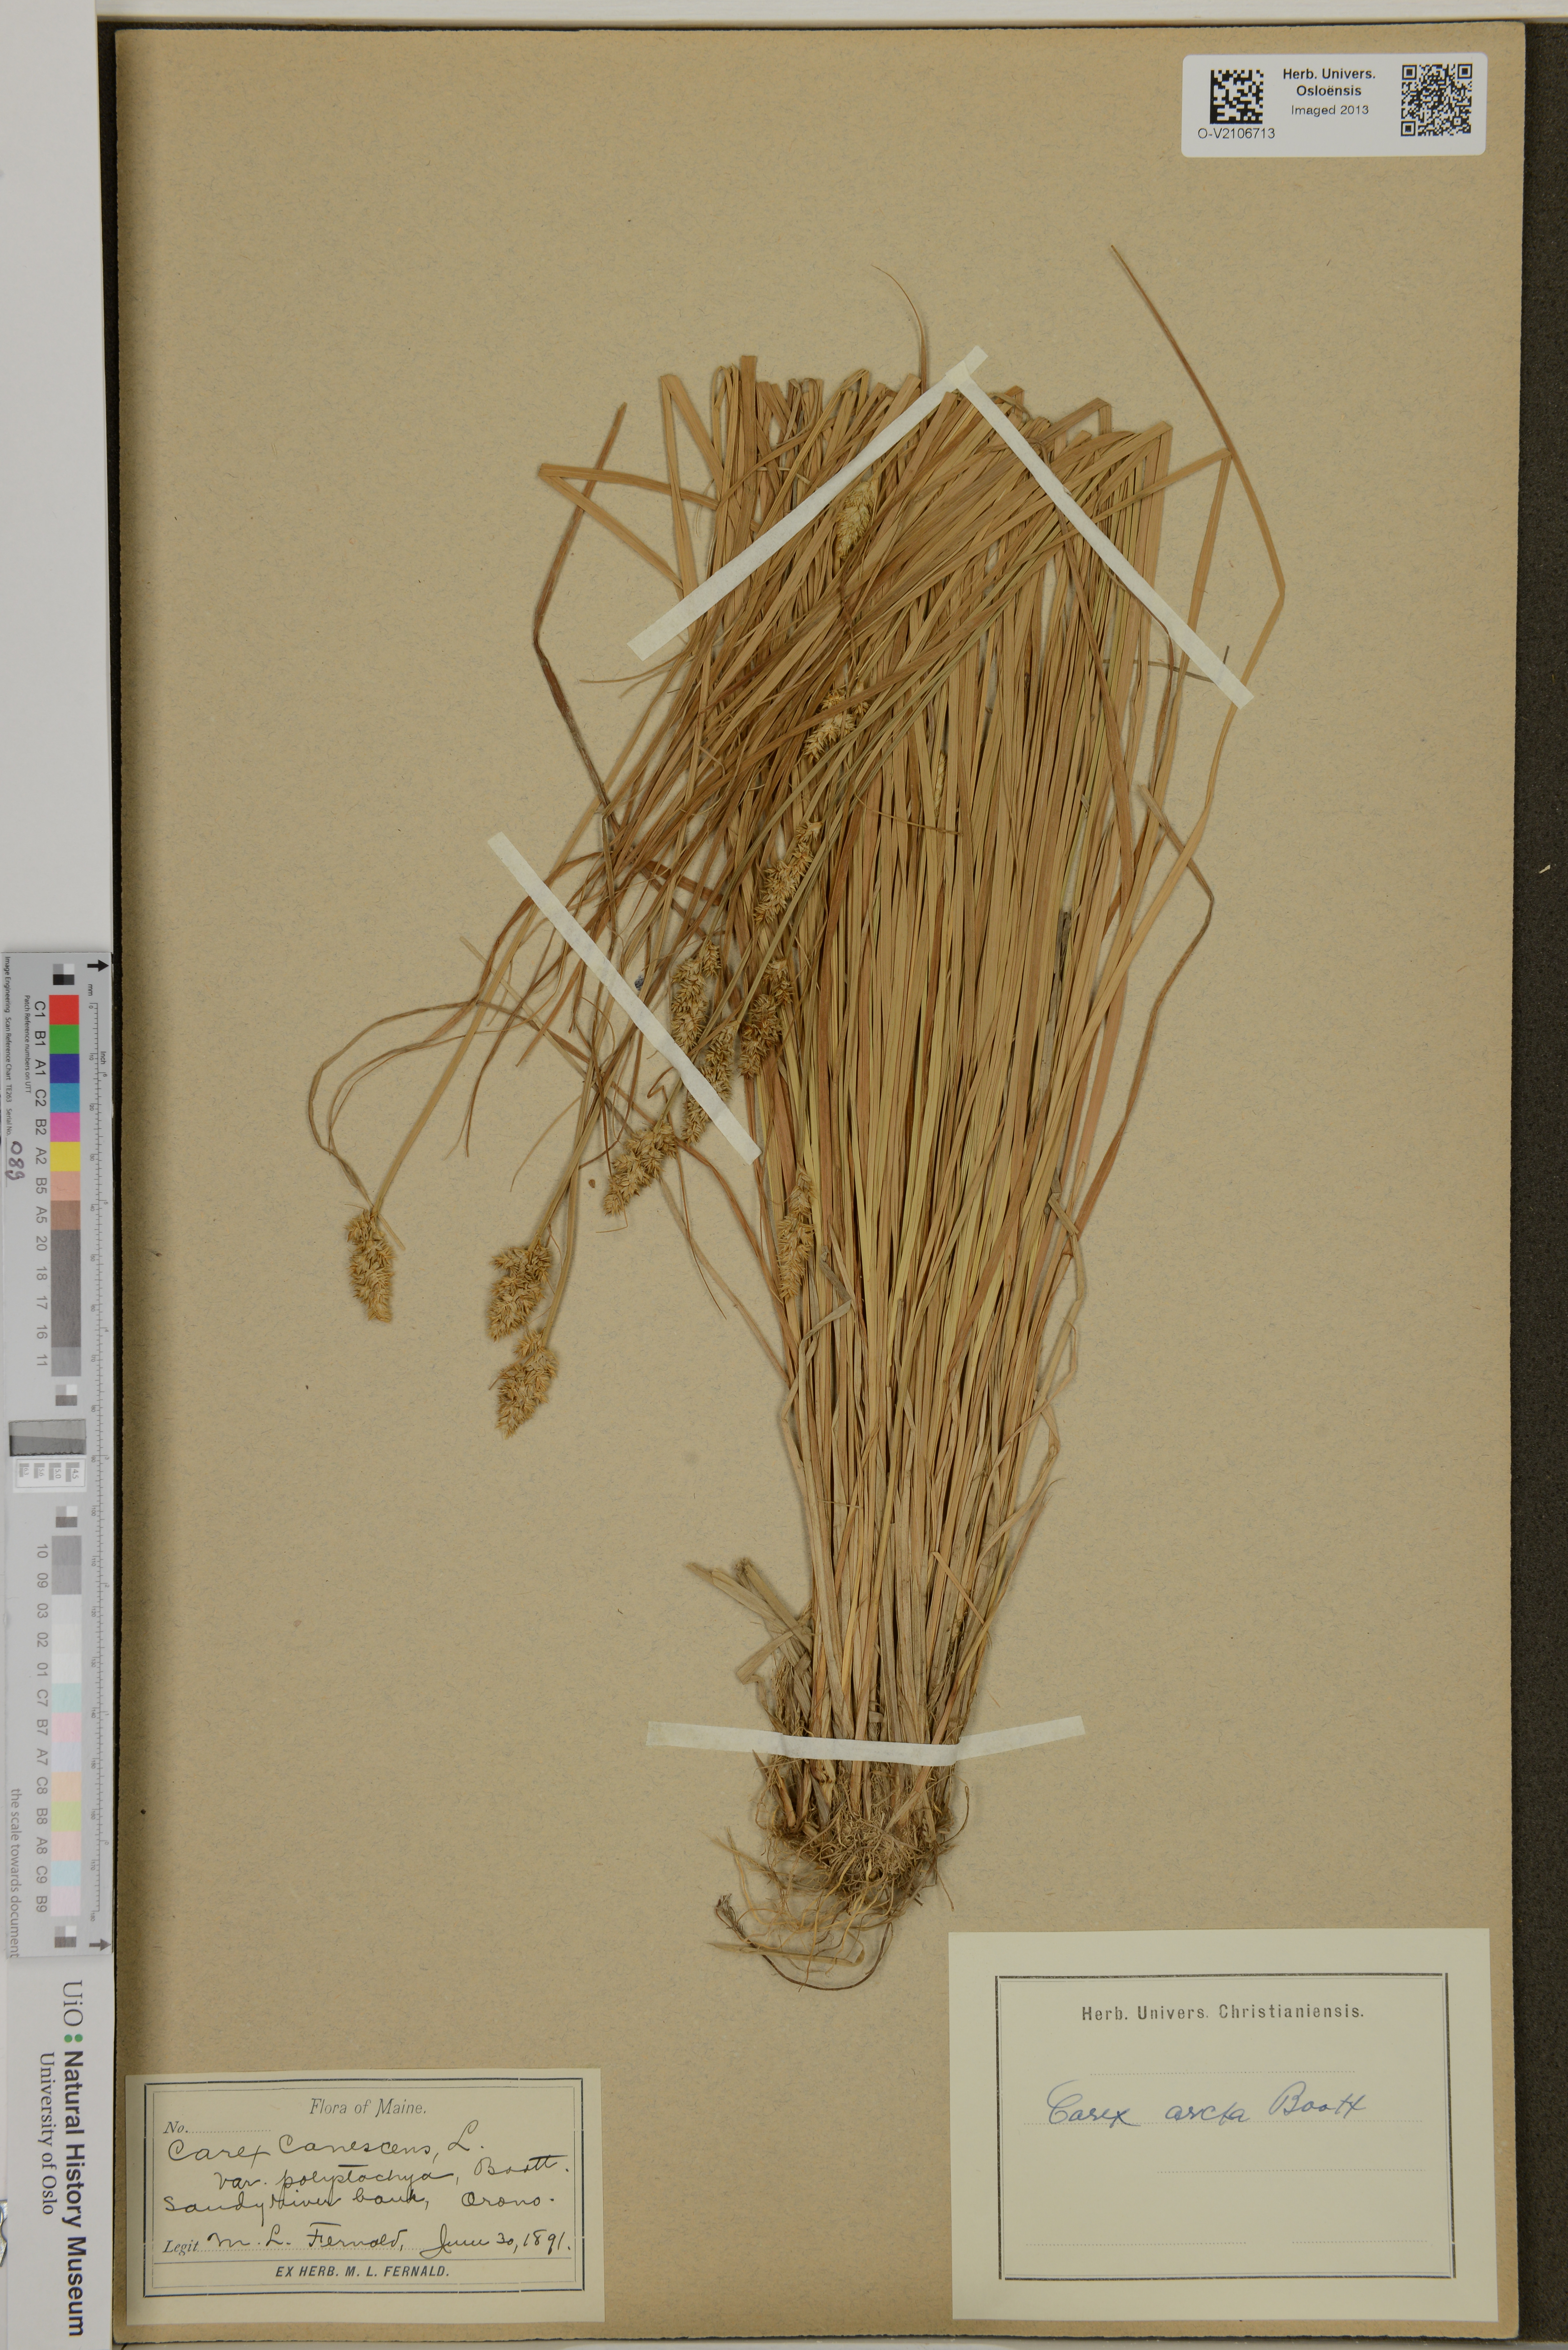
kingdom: Plantae
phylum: Tracheophyta
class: Liliopsida
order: Poales
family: Cyperaceae
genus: Carex
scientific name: Carex arcta
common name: Bear sedge
